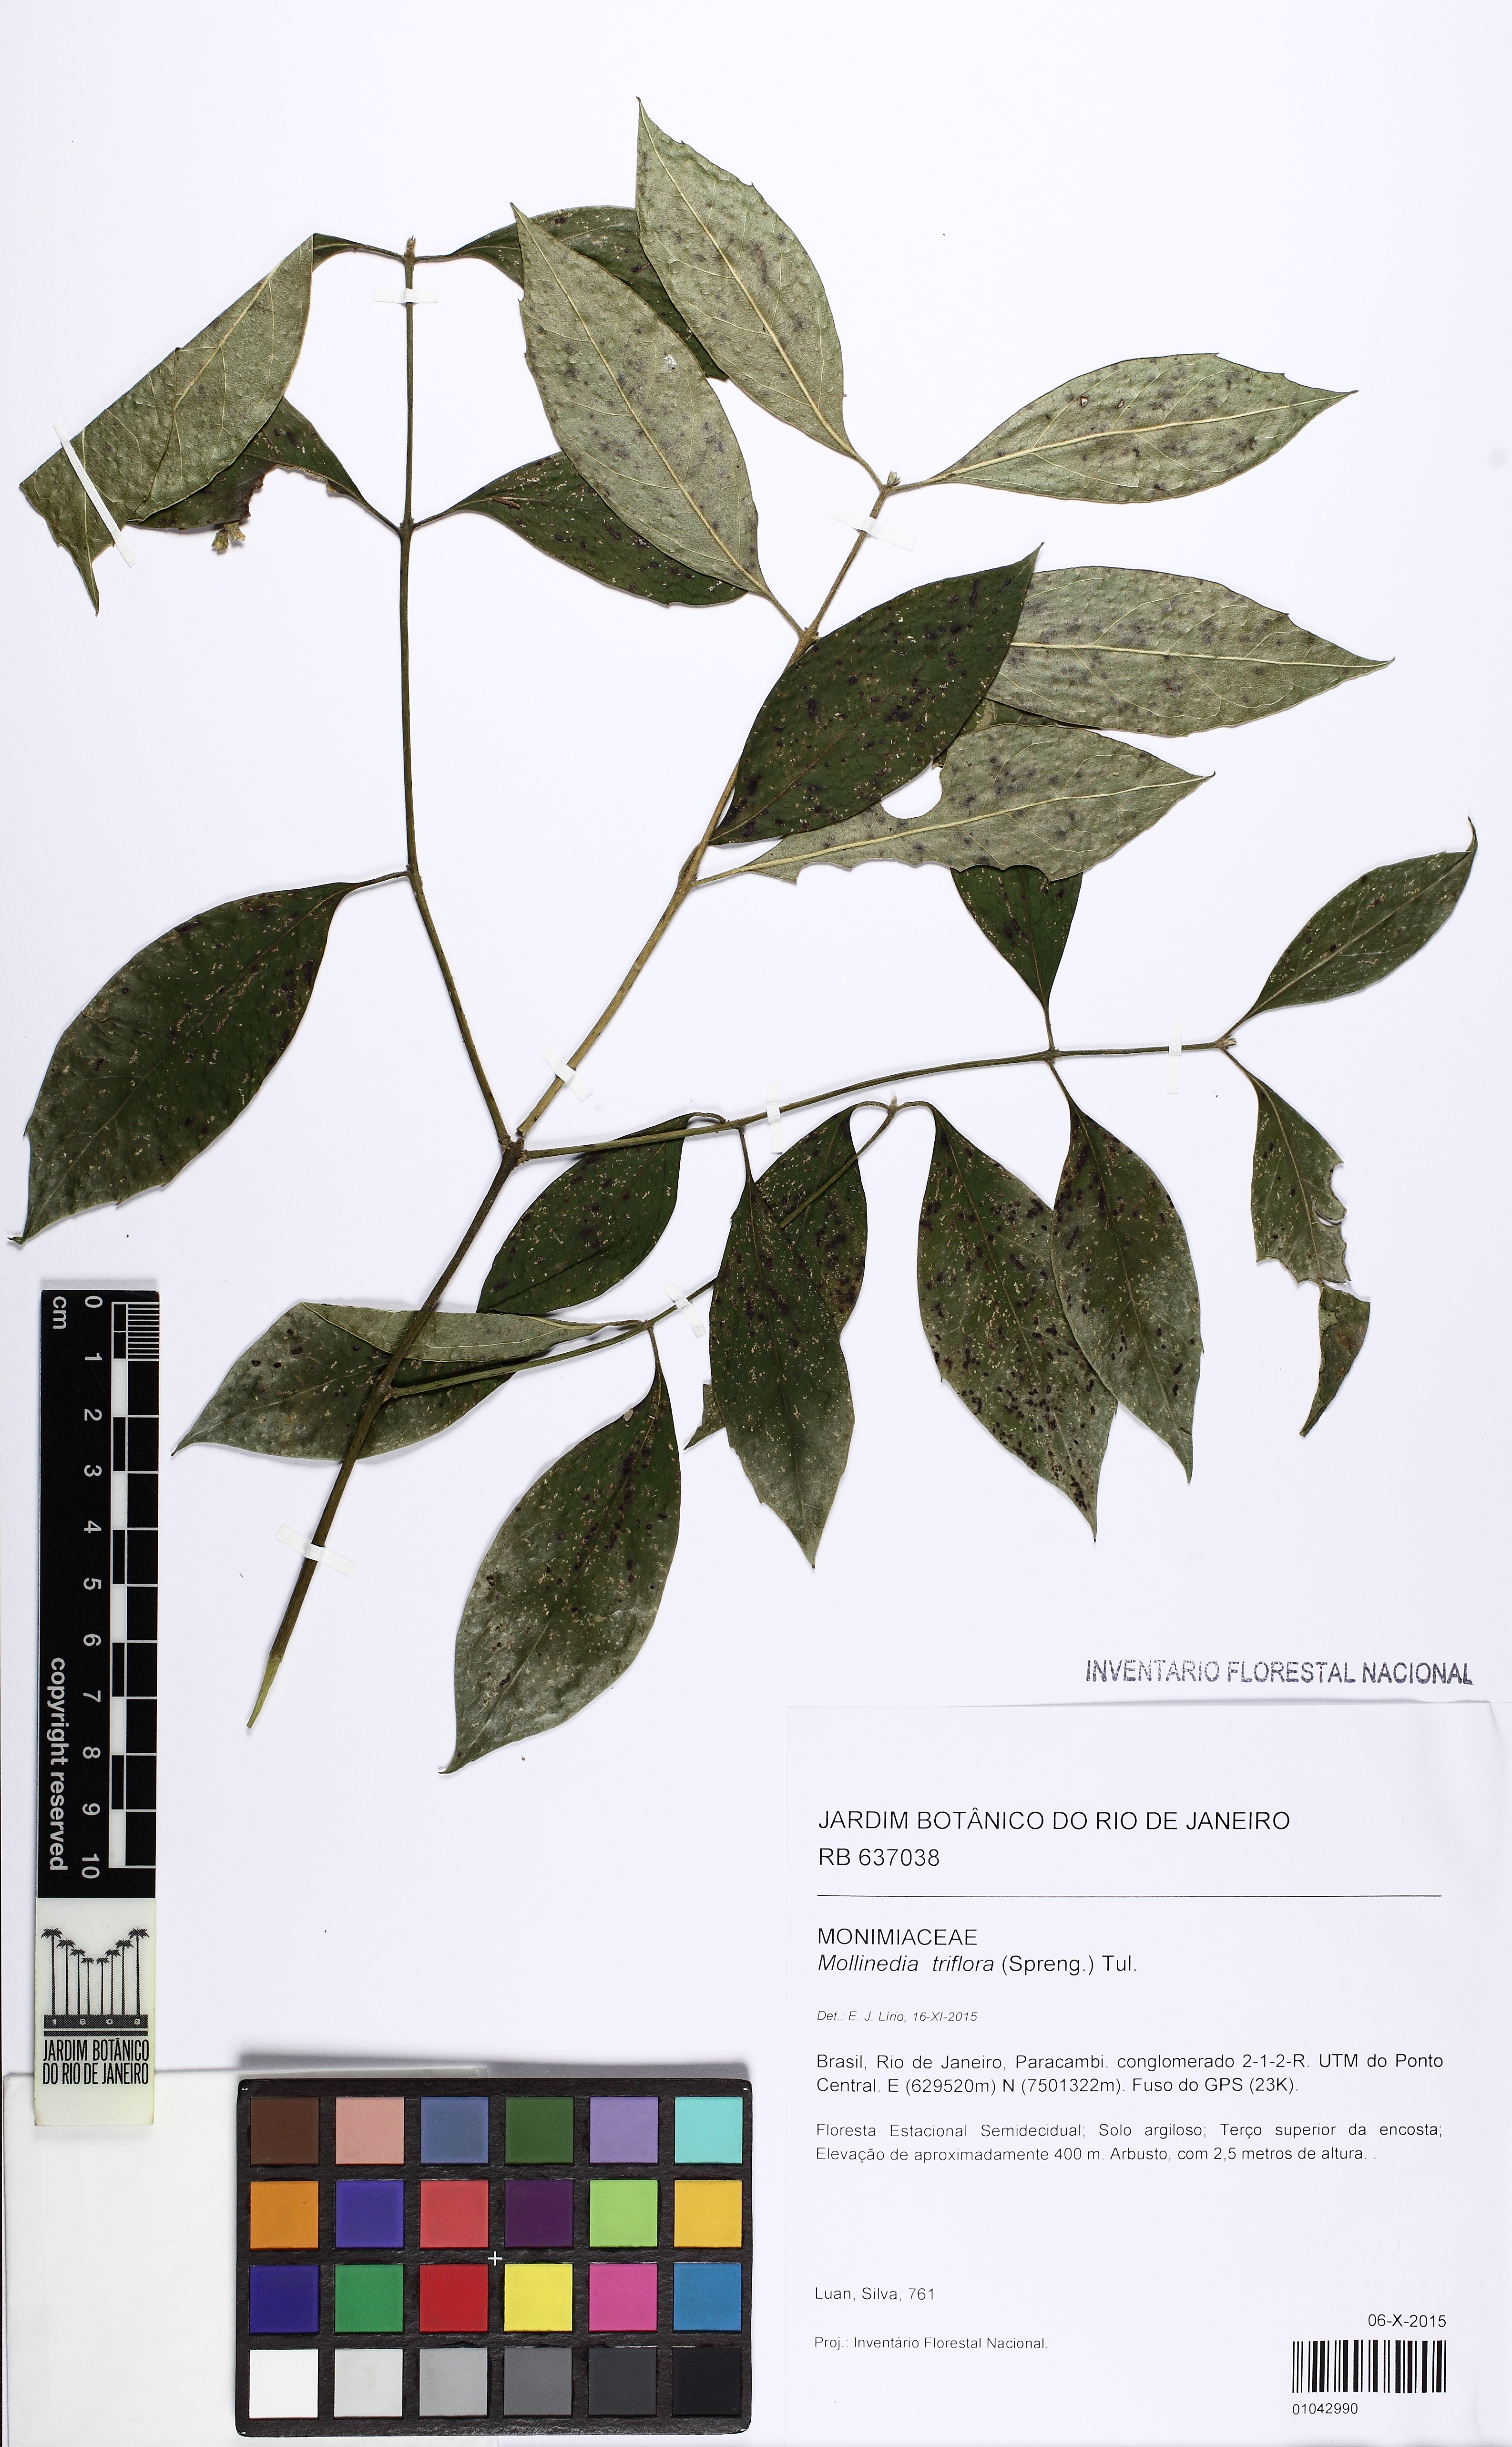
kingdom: Plantae
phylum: Tracheophyta
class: Magnoliopsida
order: Laurales
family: Monimiaceae
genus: Mollinedia
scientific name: Mollinedia triflora
